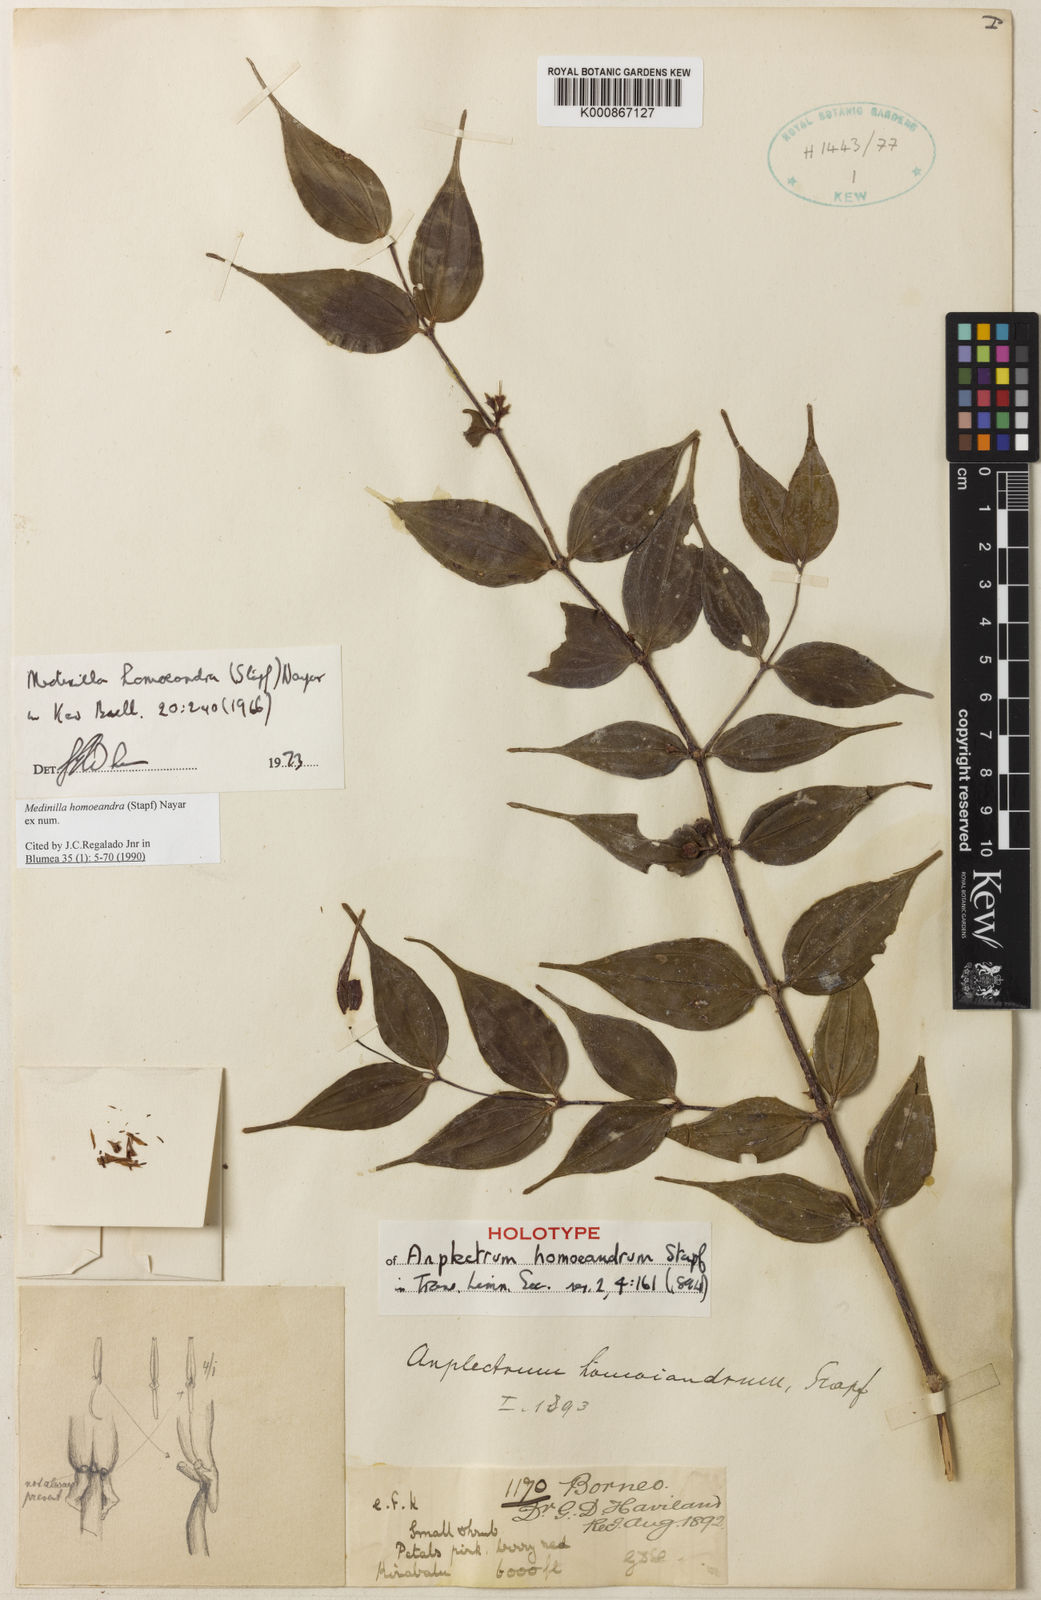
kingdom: Plantae
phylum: Tracheophyta
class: Magnoliopsida
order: Myrtales
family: Melastomataceae
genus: Medinilla
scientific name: Medinilla homoeandra
